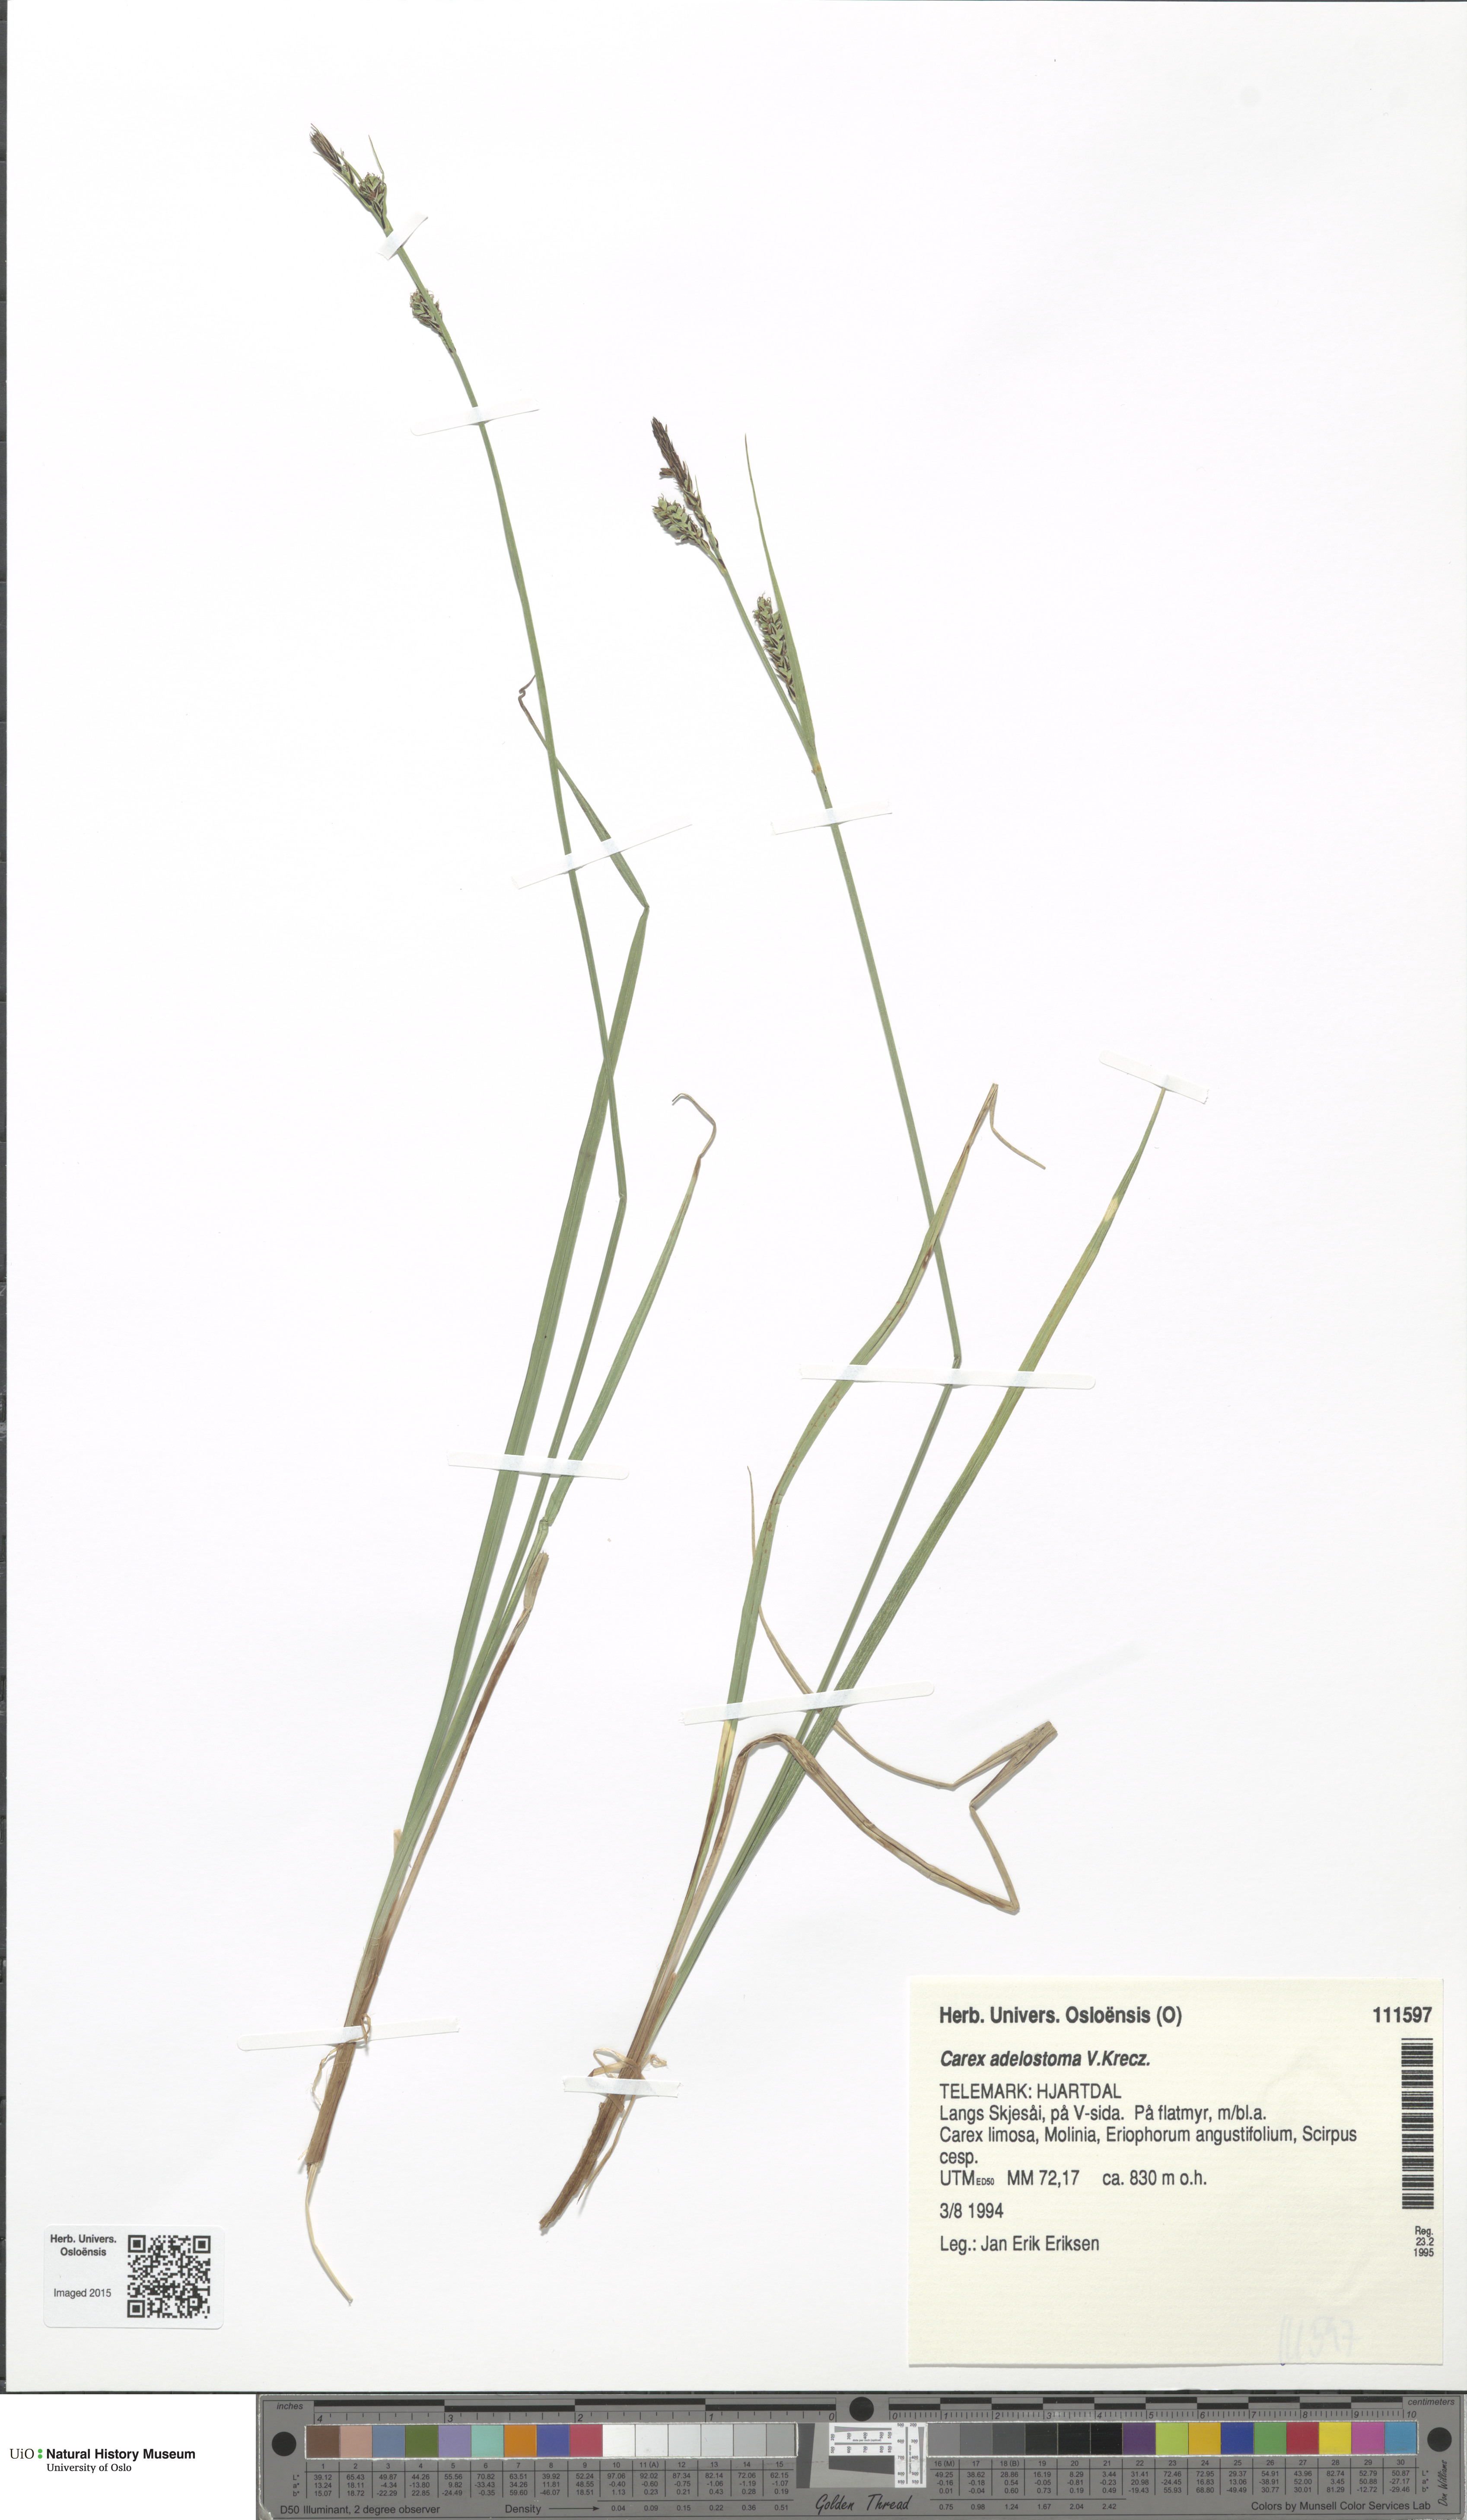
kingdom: Plantae
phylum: Tracheophyta
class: Liliopsida
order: Poales
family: Cyperaceae
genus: Carex
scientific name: Carex adelostoma
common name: Circumpolar sedge
